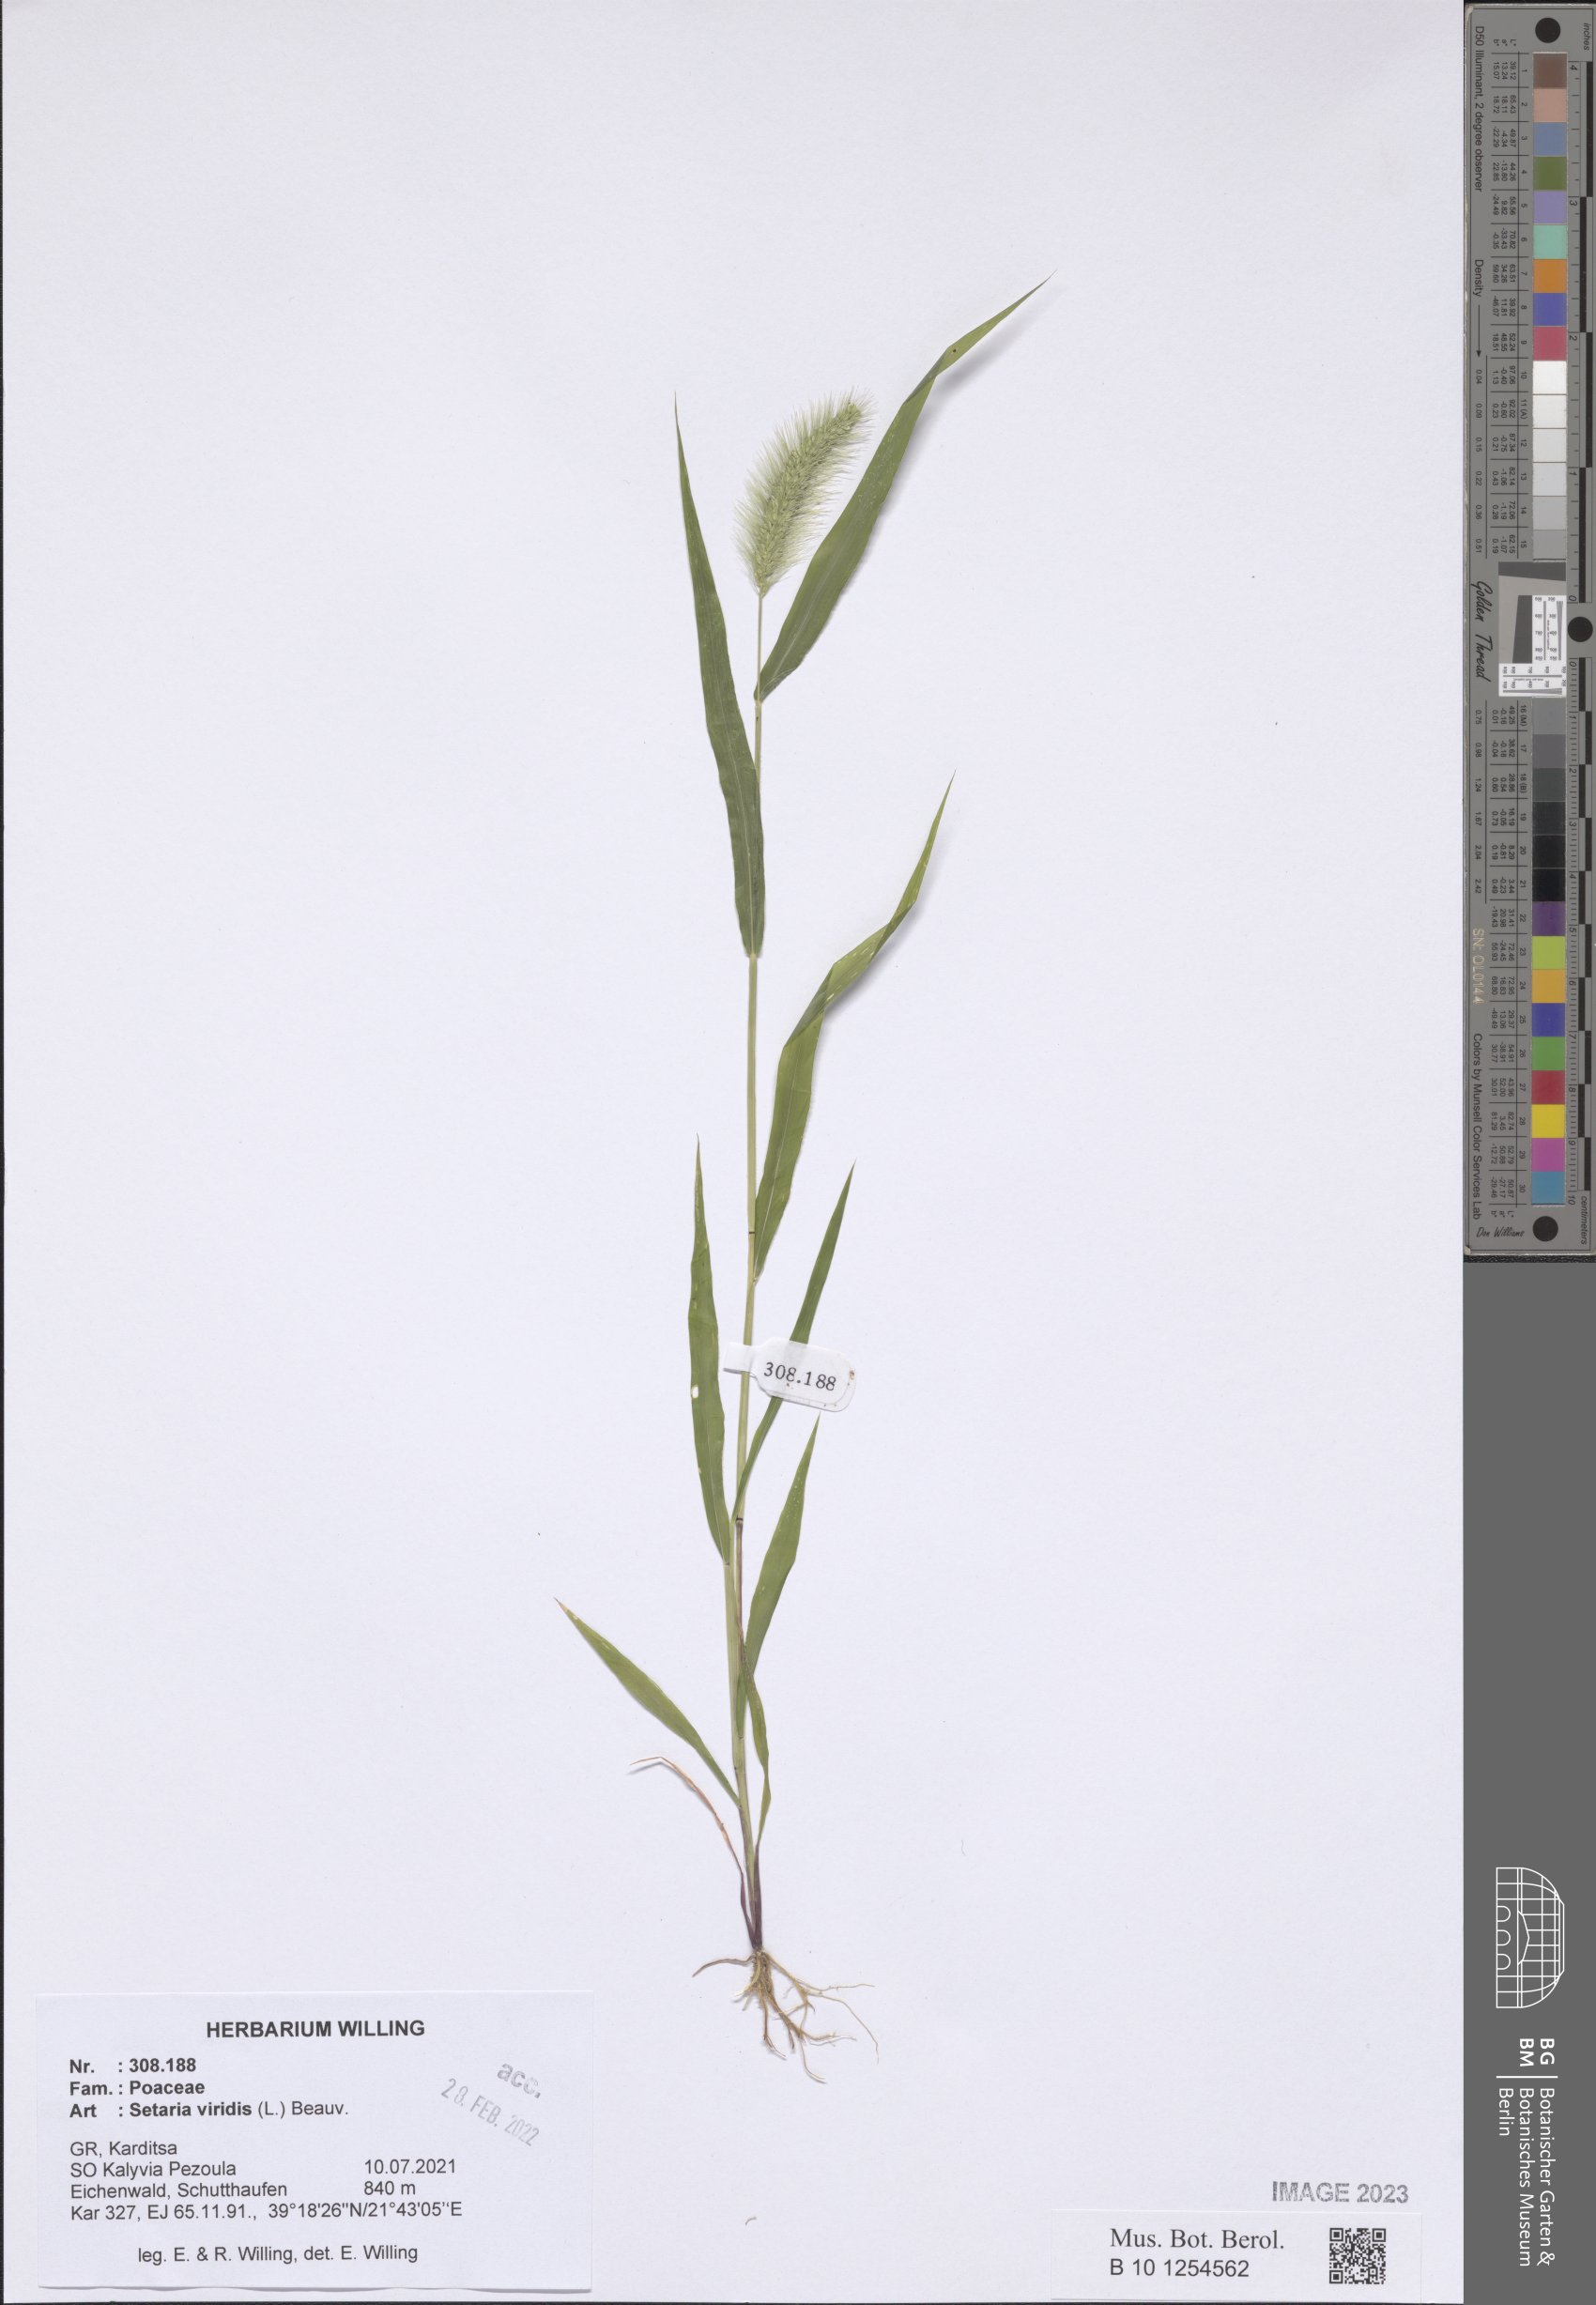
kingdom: Plantae
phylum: Tracheophyta
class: Liliopsida
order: Poales
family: Poaceae
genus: Setaria
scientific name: Setaria viridis
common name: Green bristlegrass
